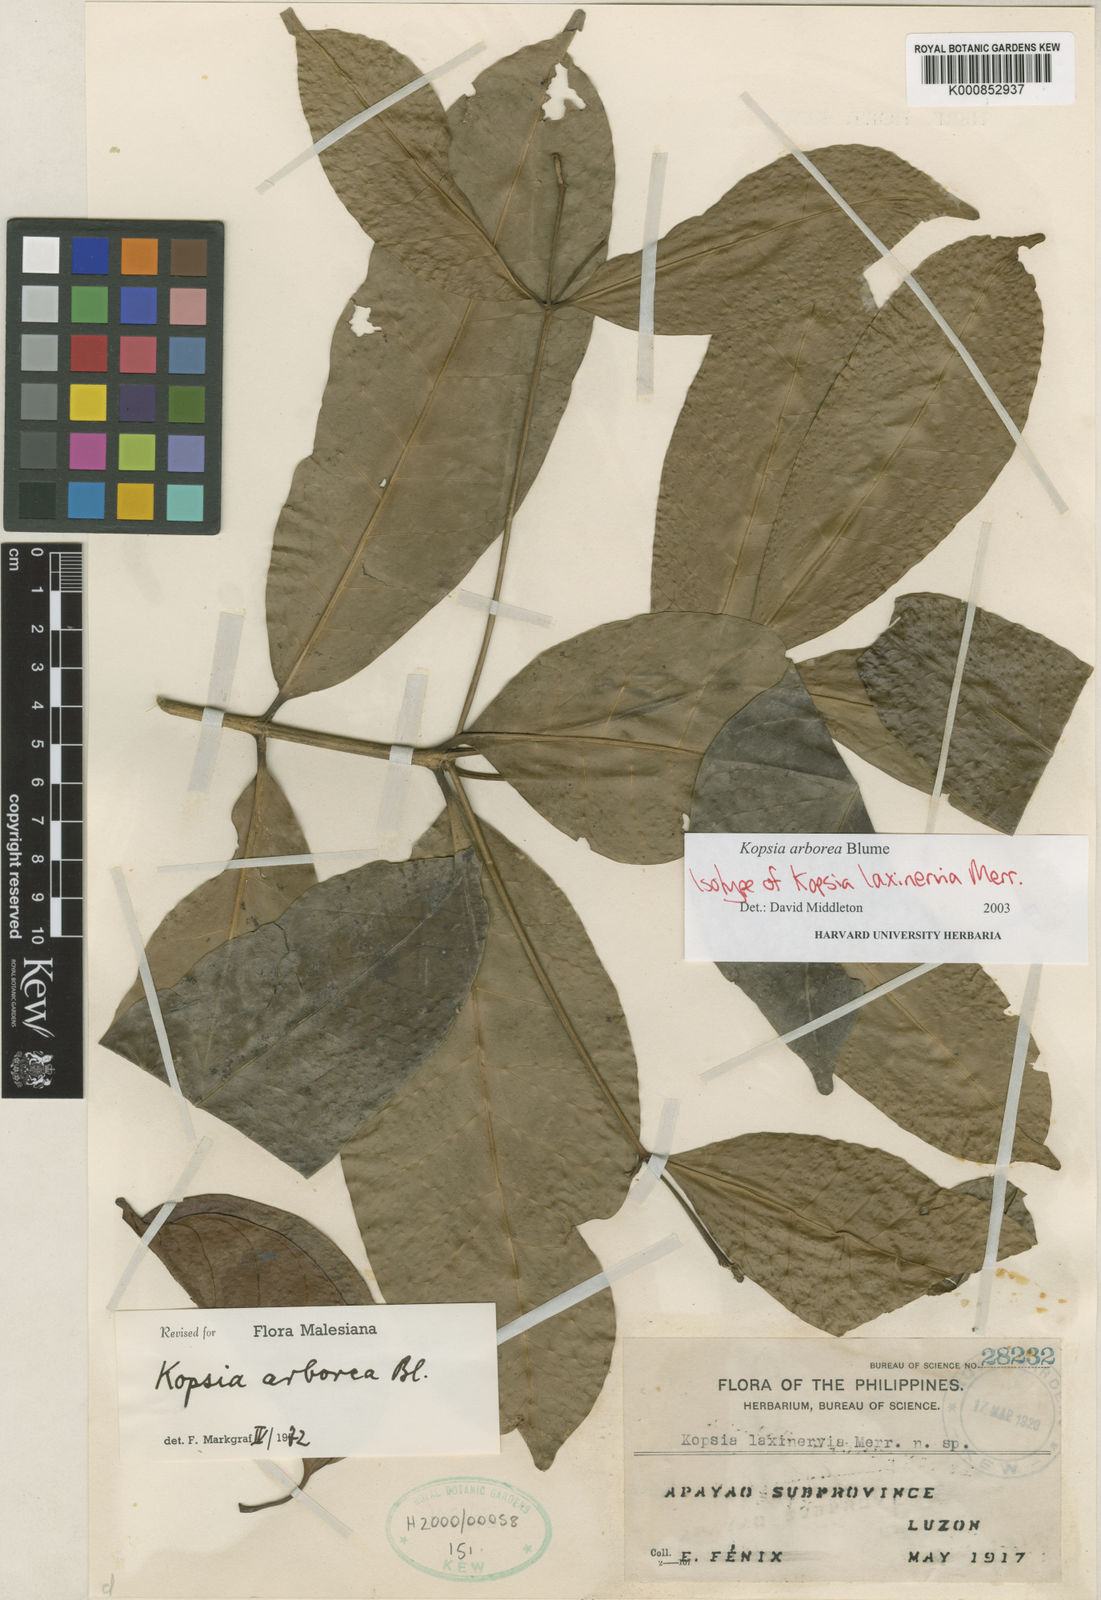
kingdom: Plantae
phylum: Tracheophyta
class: Magnoliopsida
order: Gentianales
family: Apocynaceae
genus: Kopsia
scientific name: Kopsia arborea
